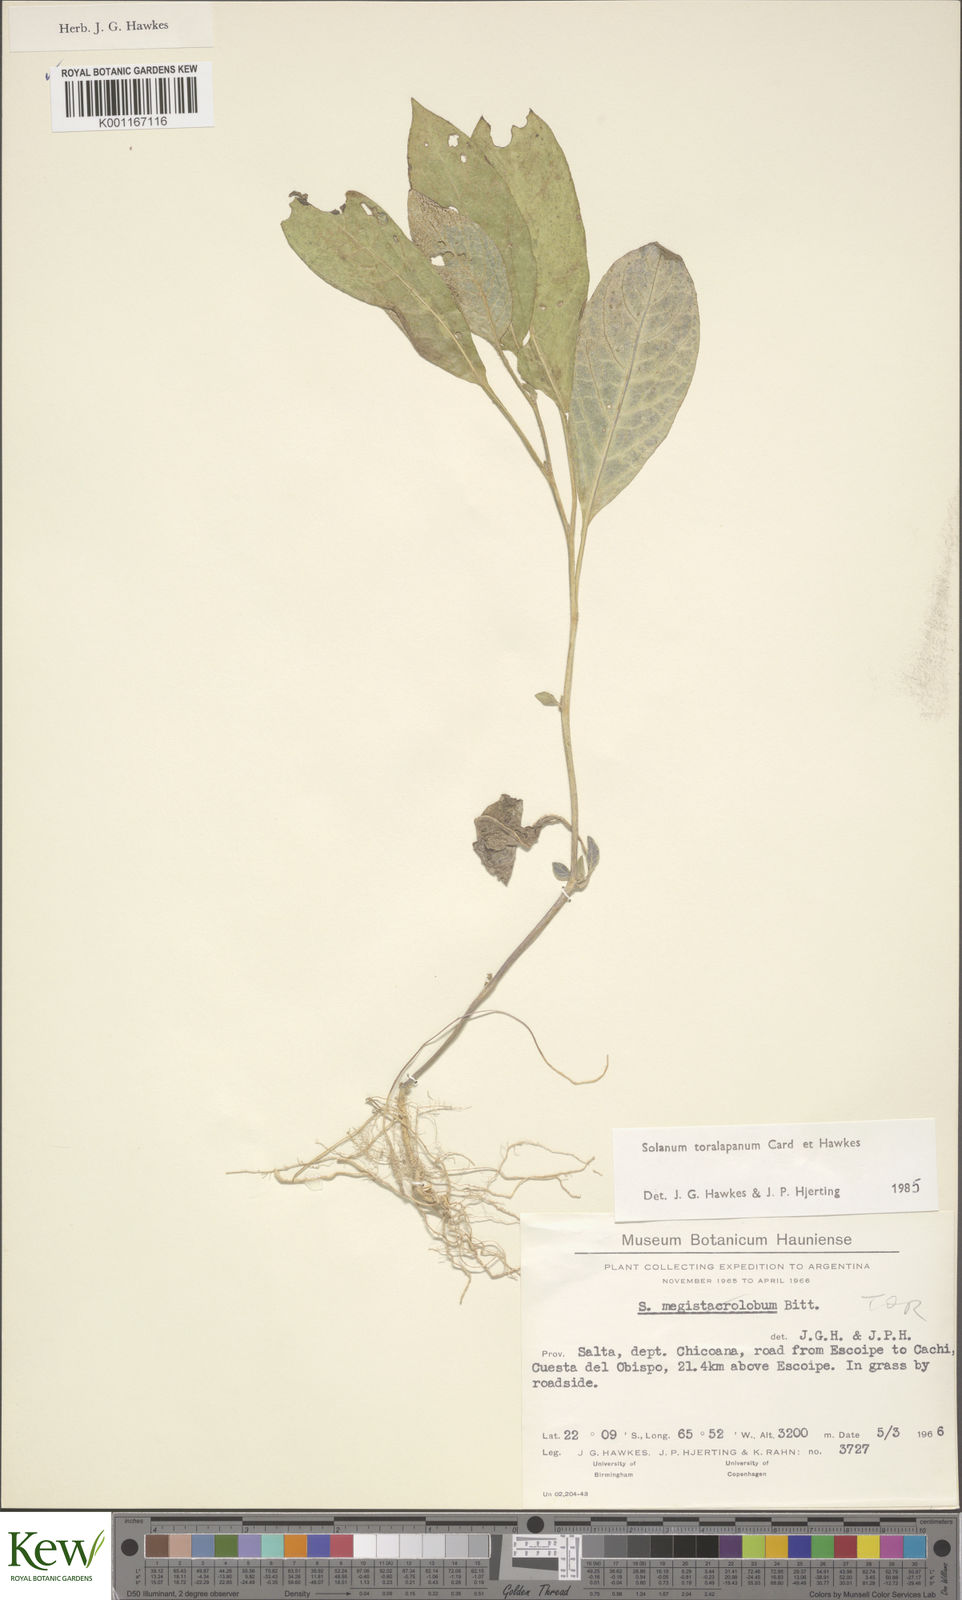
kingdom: Plantae
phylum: Tracheophyta
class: Magnoliopsida
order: Solanales
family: Solanaceae
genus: Solanum
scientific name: Solanum
